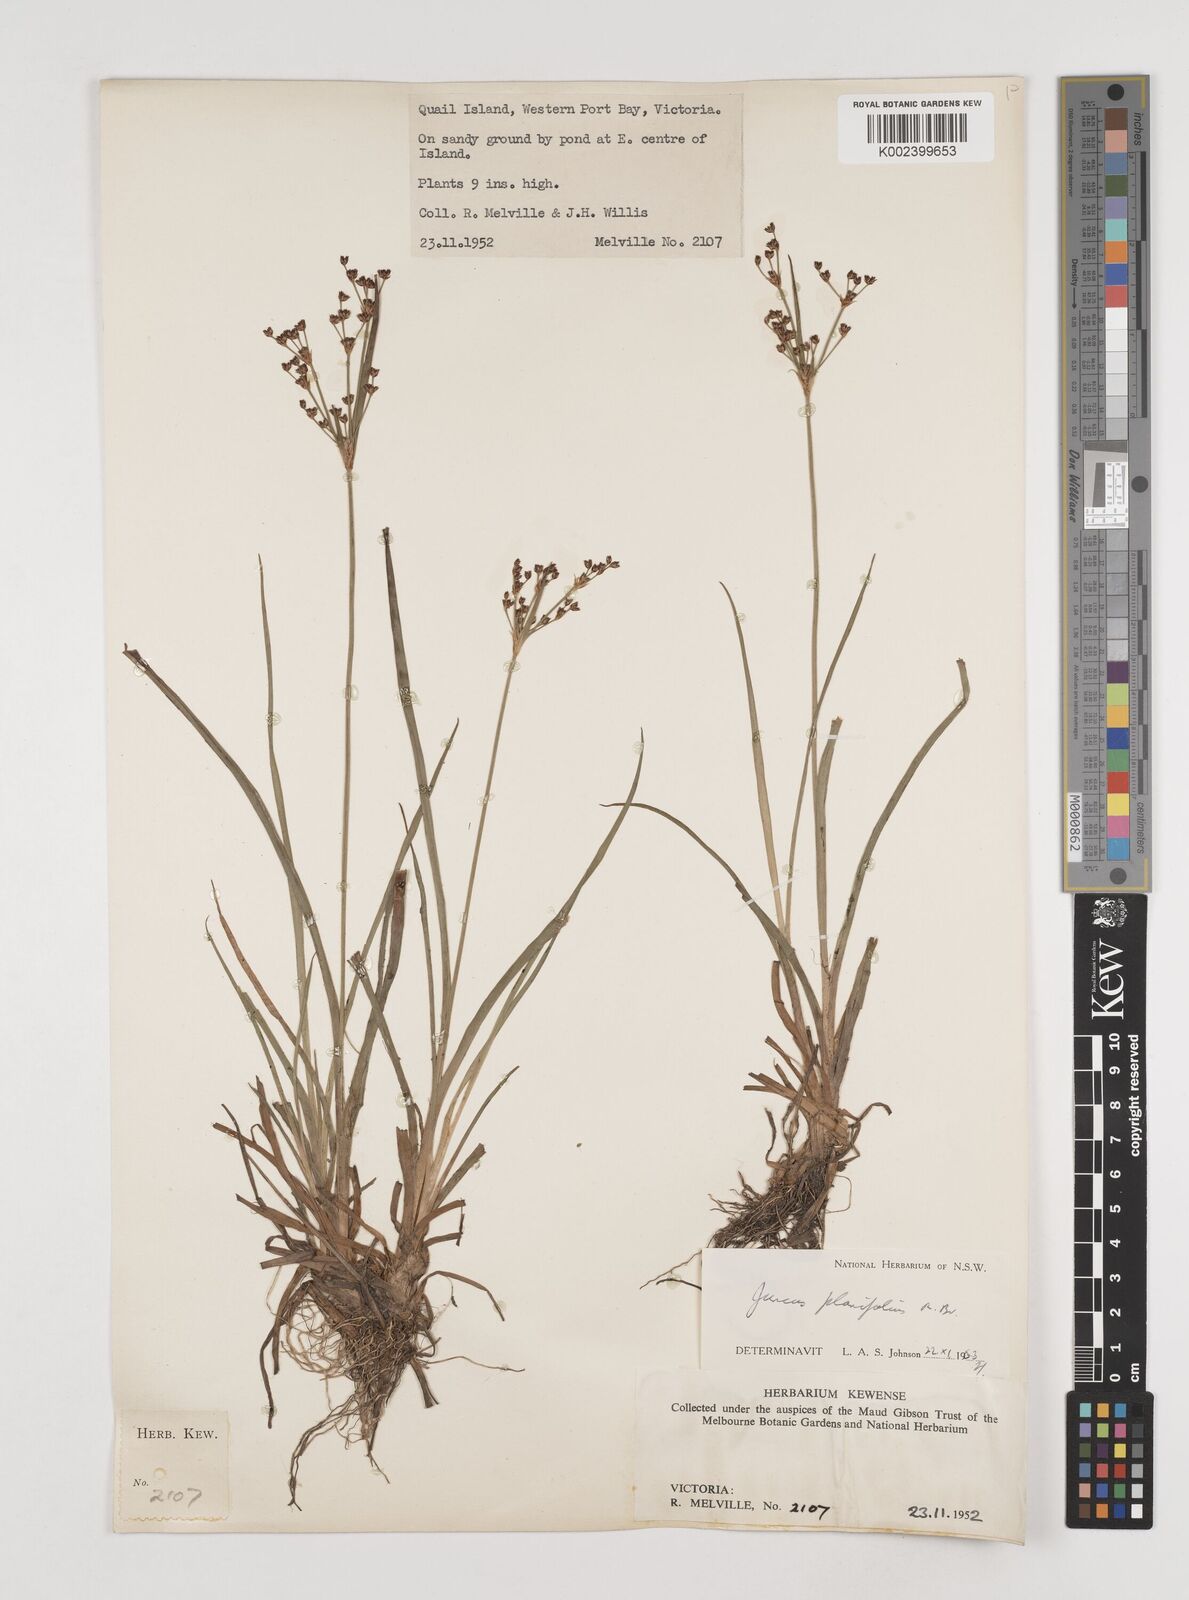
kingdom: Plantae
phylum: Tracheophyta
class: Liliopsida
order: Poales
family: Juncaceae
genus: Juncus
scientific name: Juncus planifolius
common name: Broadleaf rush
